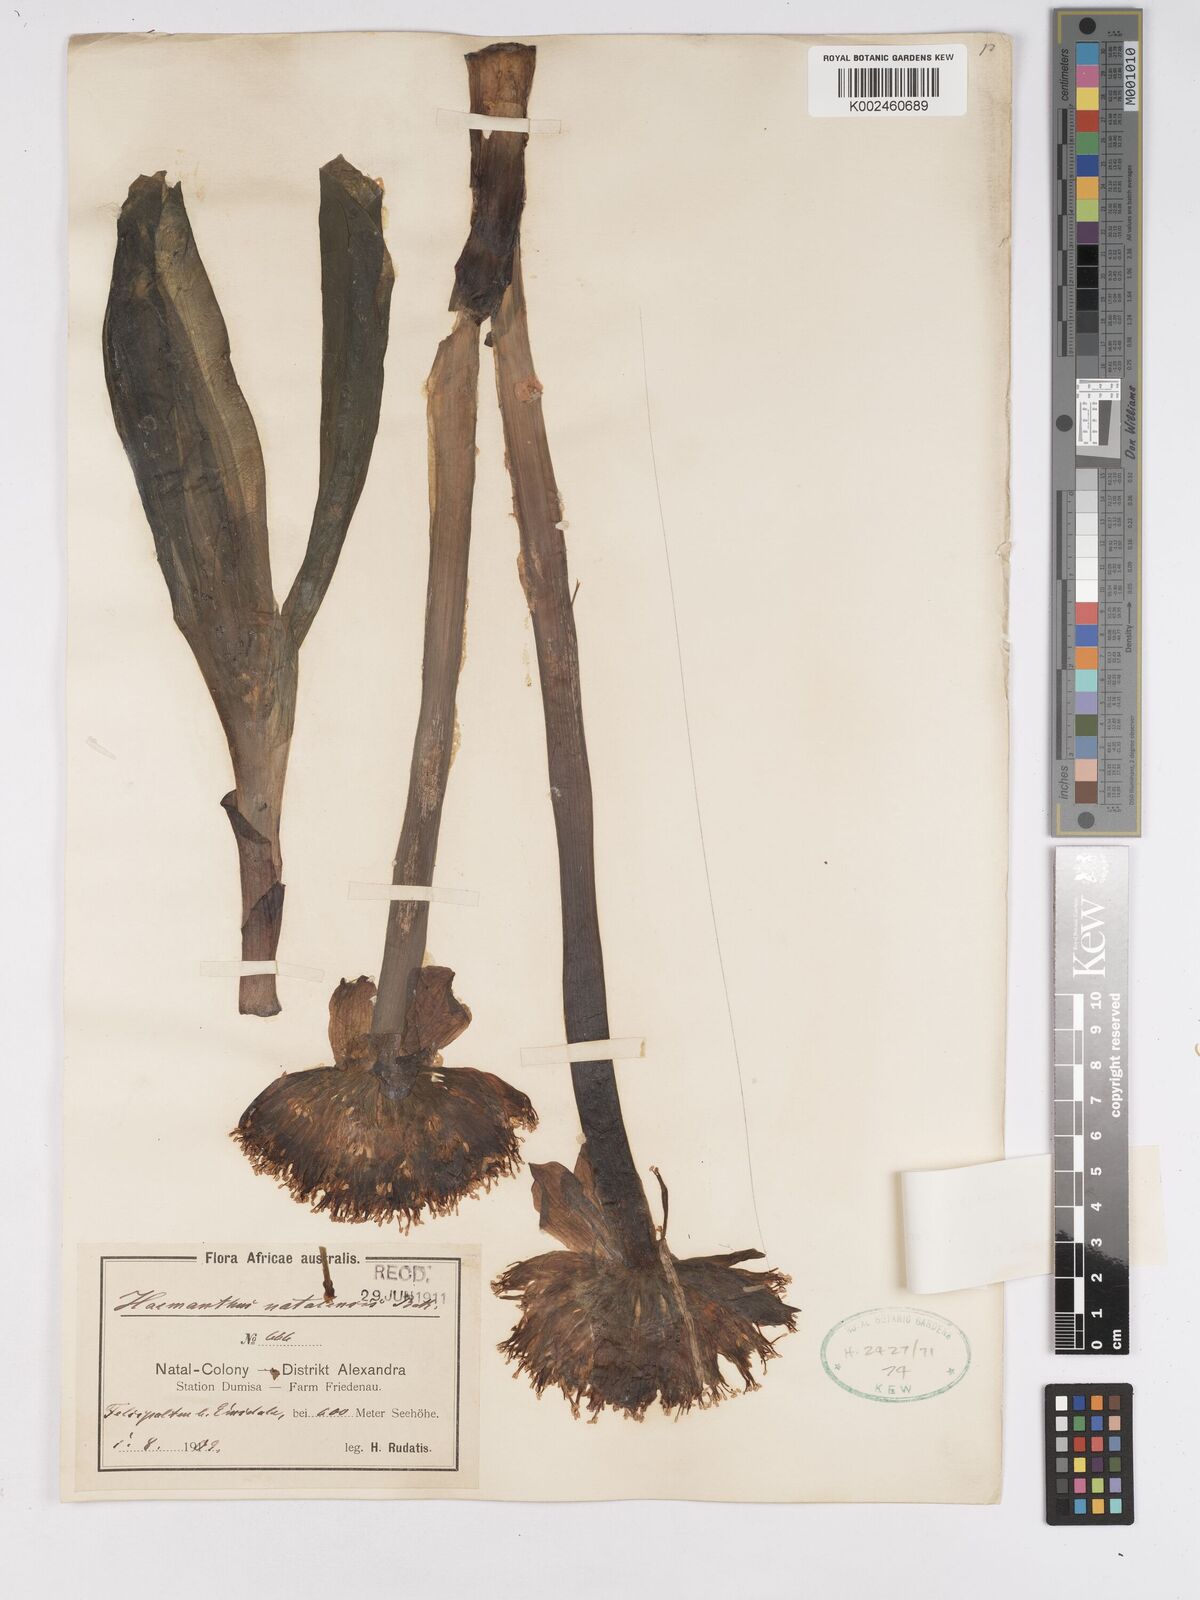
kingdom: Plantae
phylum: Tracheophyta
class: Liliopsida
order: Asparagales
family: Amaryllidaceae
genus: Scadoxus
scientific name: Scadoxus puniceus
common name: Royal-paintbrush
